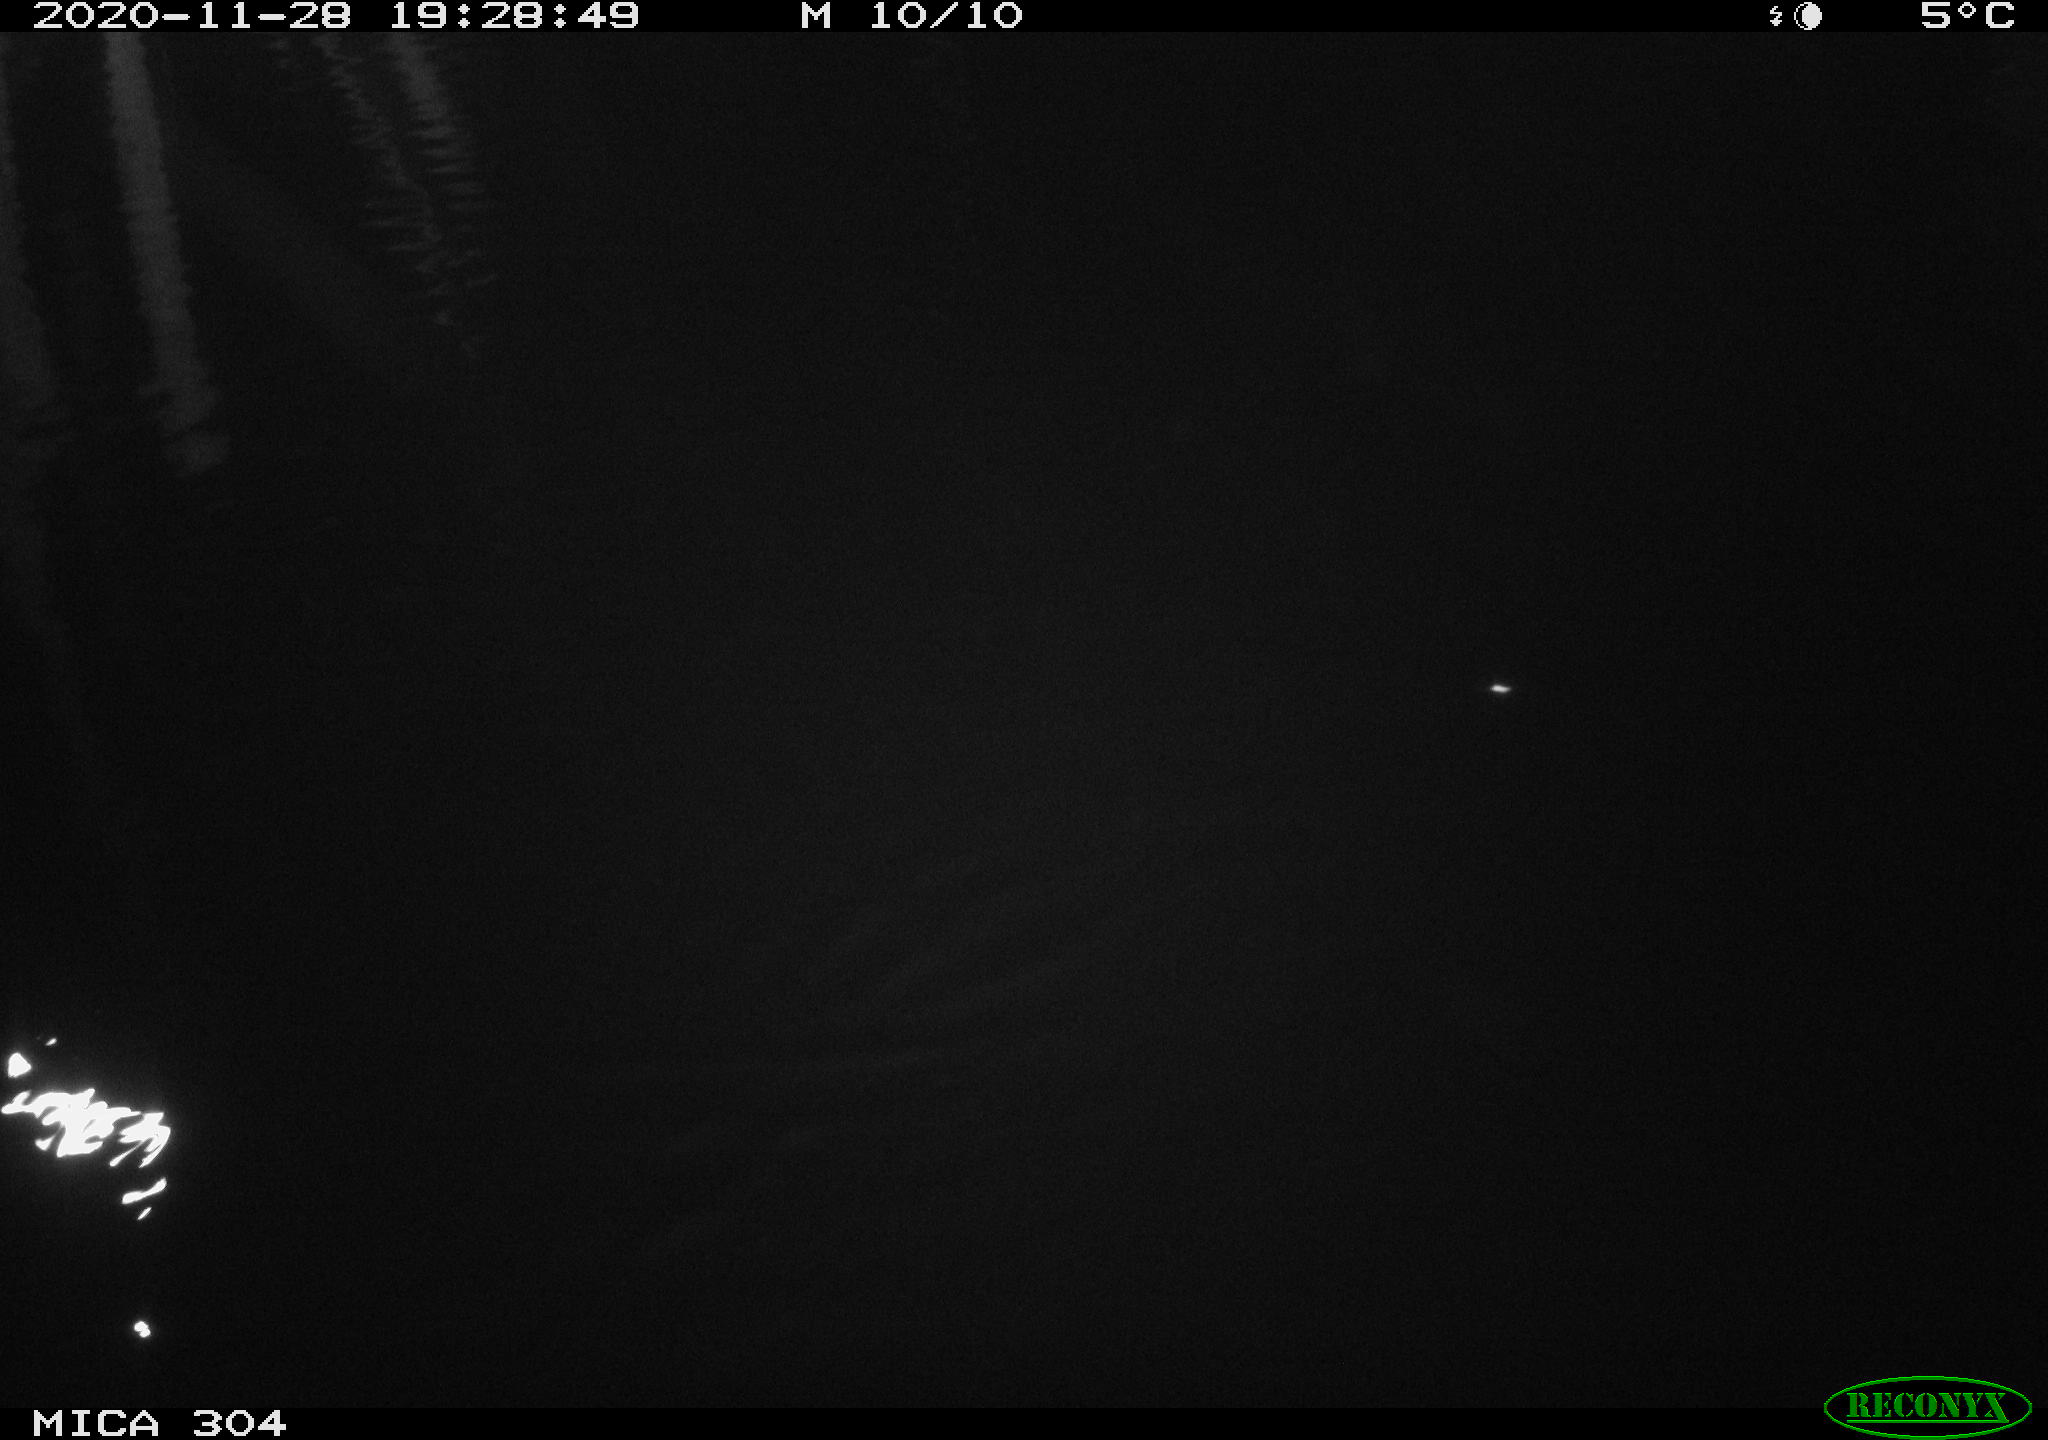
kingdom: Animalia
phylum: Chordata
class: Mammalia
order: Rodentia
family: Cricetidae
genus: Ondatra
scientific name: Ondatra zibethicus
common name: Muskrat
